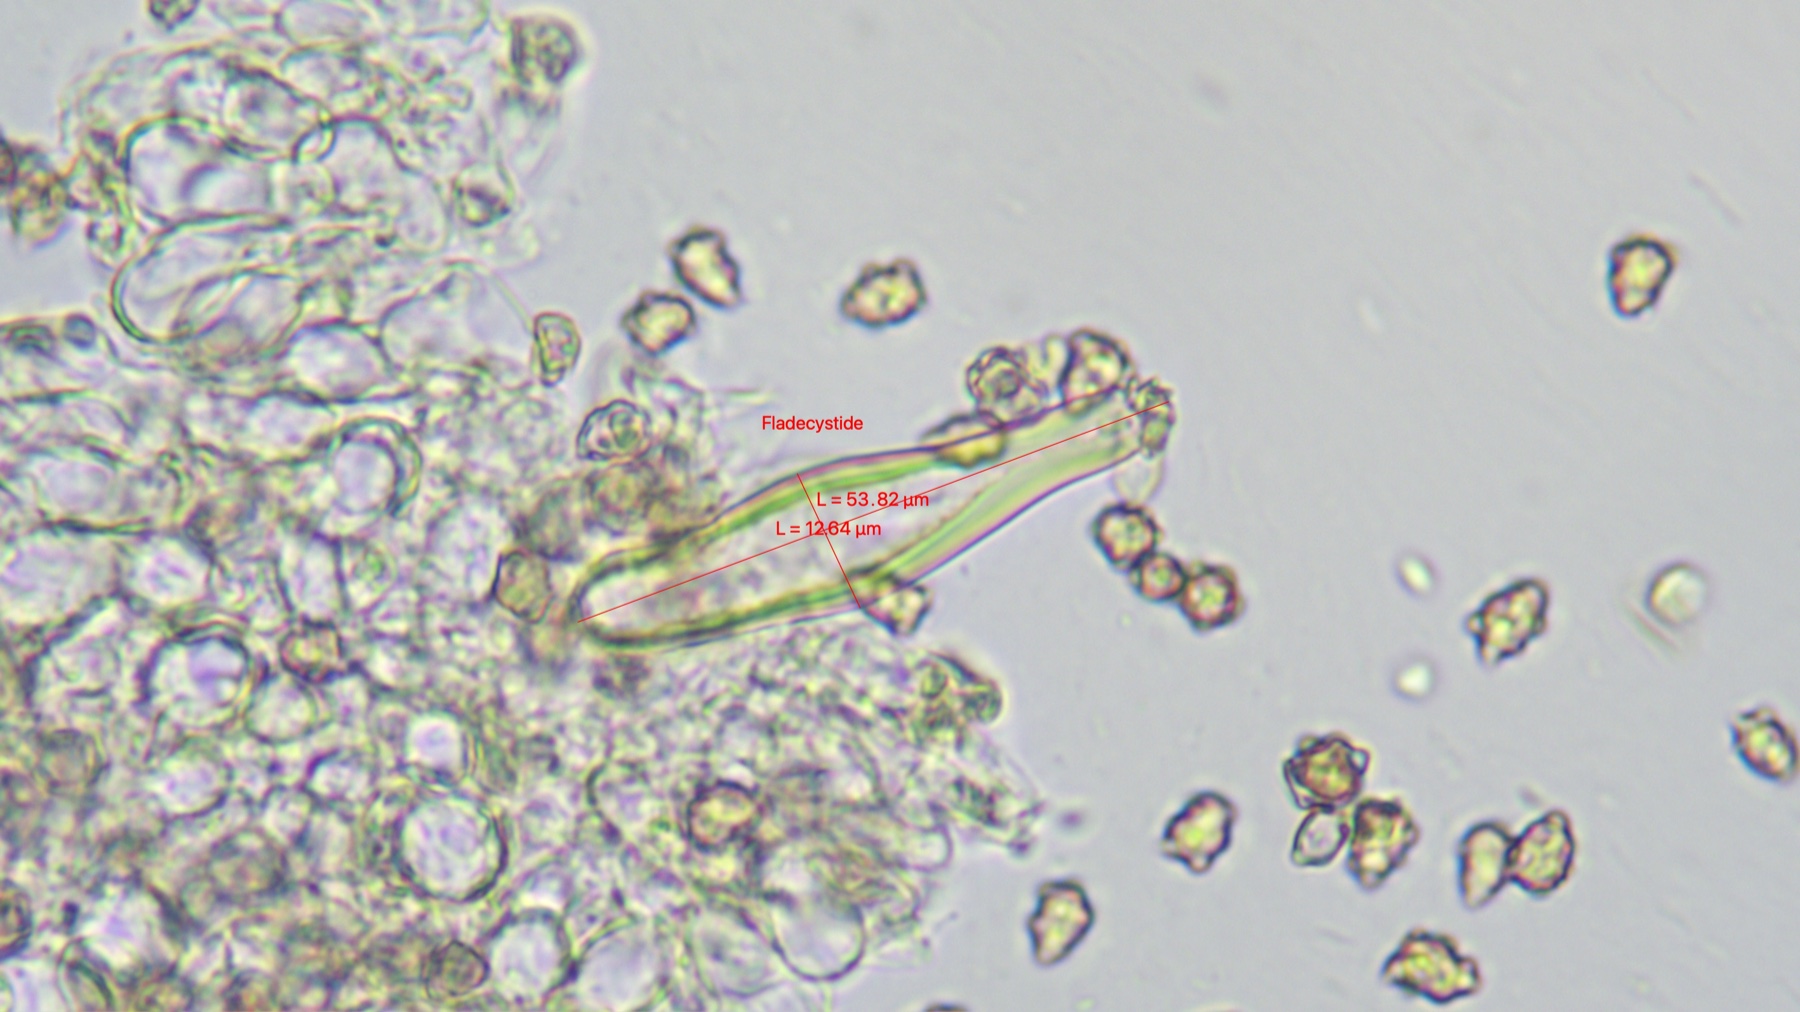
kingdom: Fungi
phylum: Basidiomycota
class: Agaricomycetes
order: Agaricales
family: Inocybaceae
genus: Inocybe
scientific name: Inocybe petiginosa
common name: liden trævlhat
